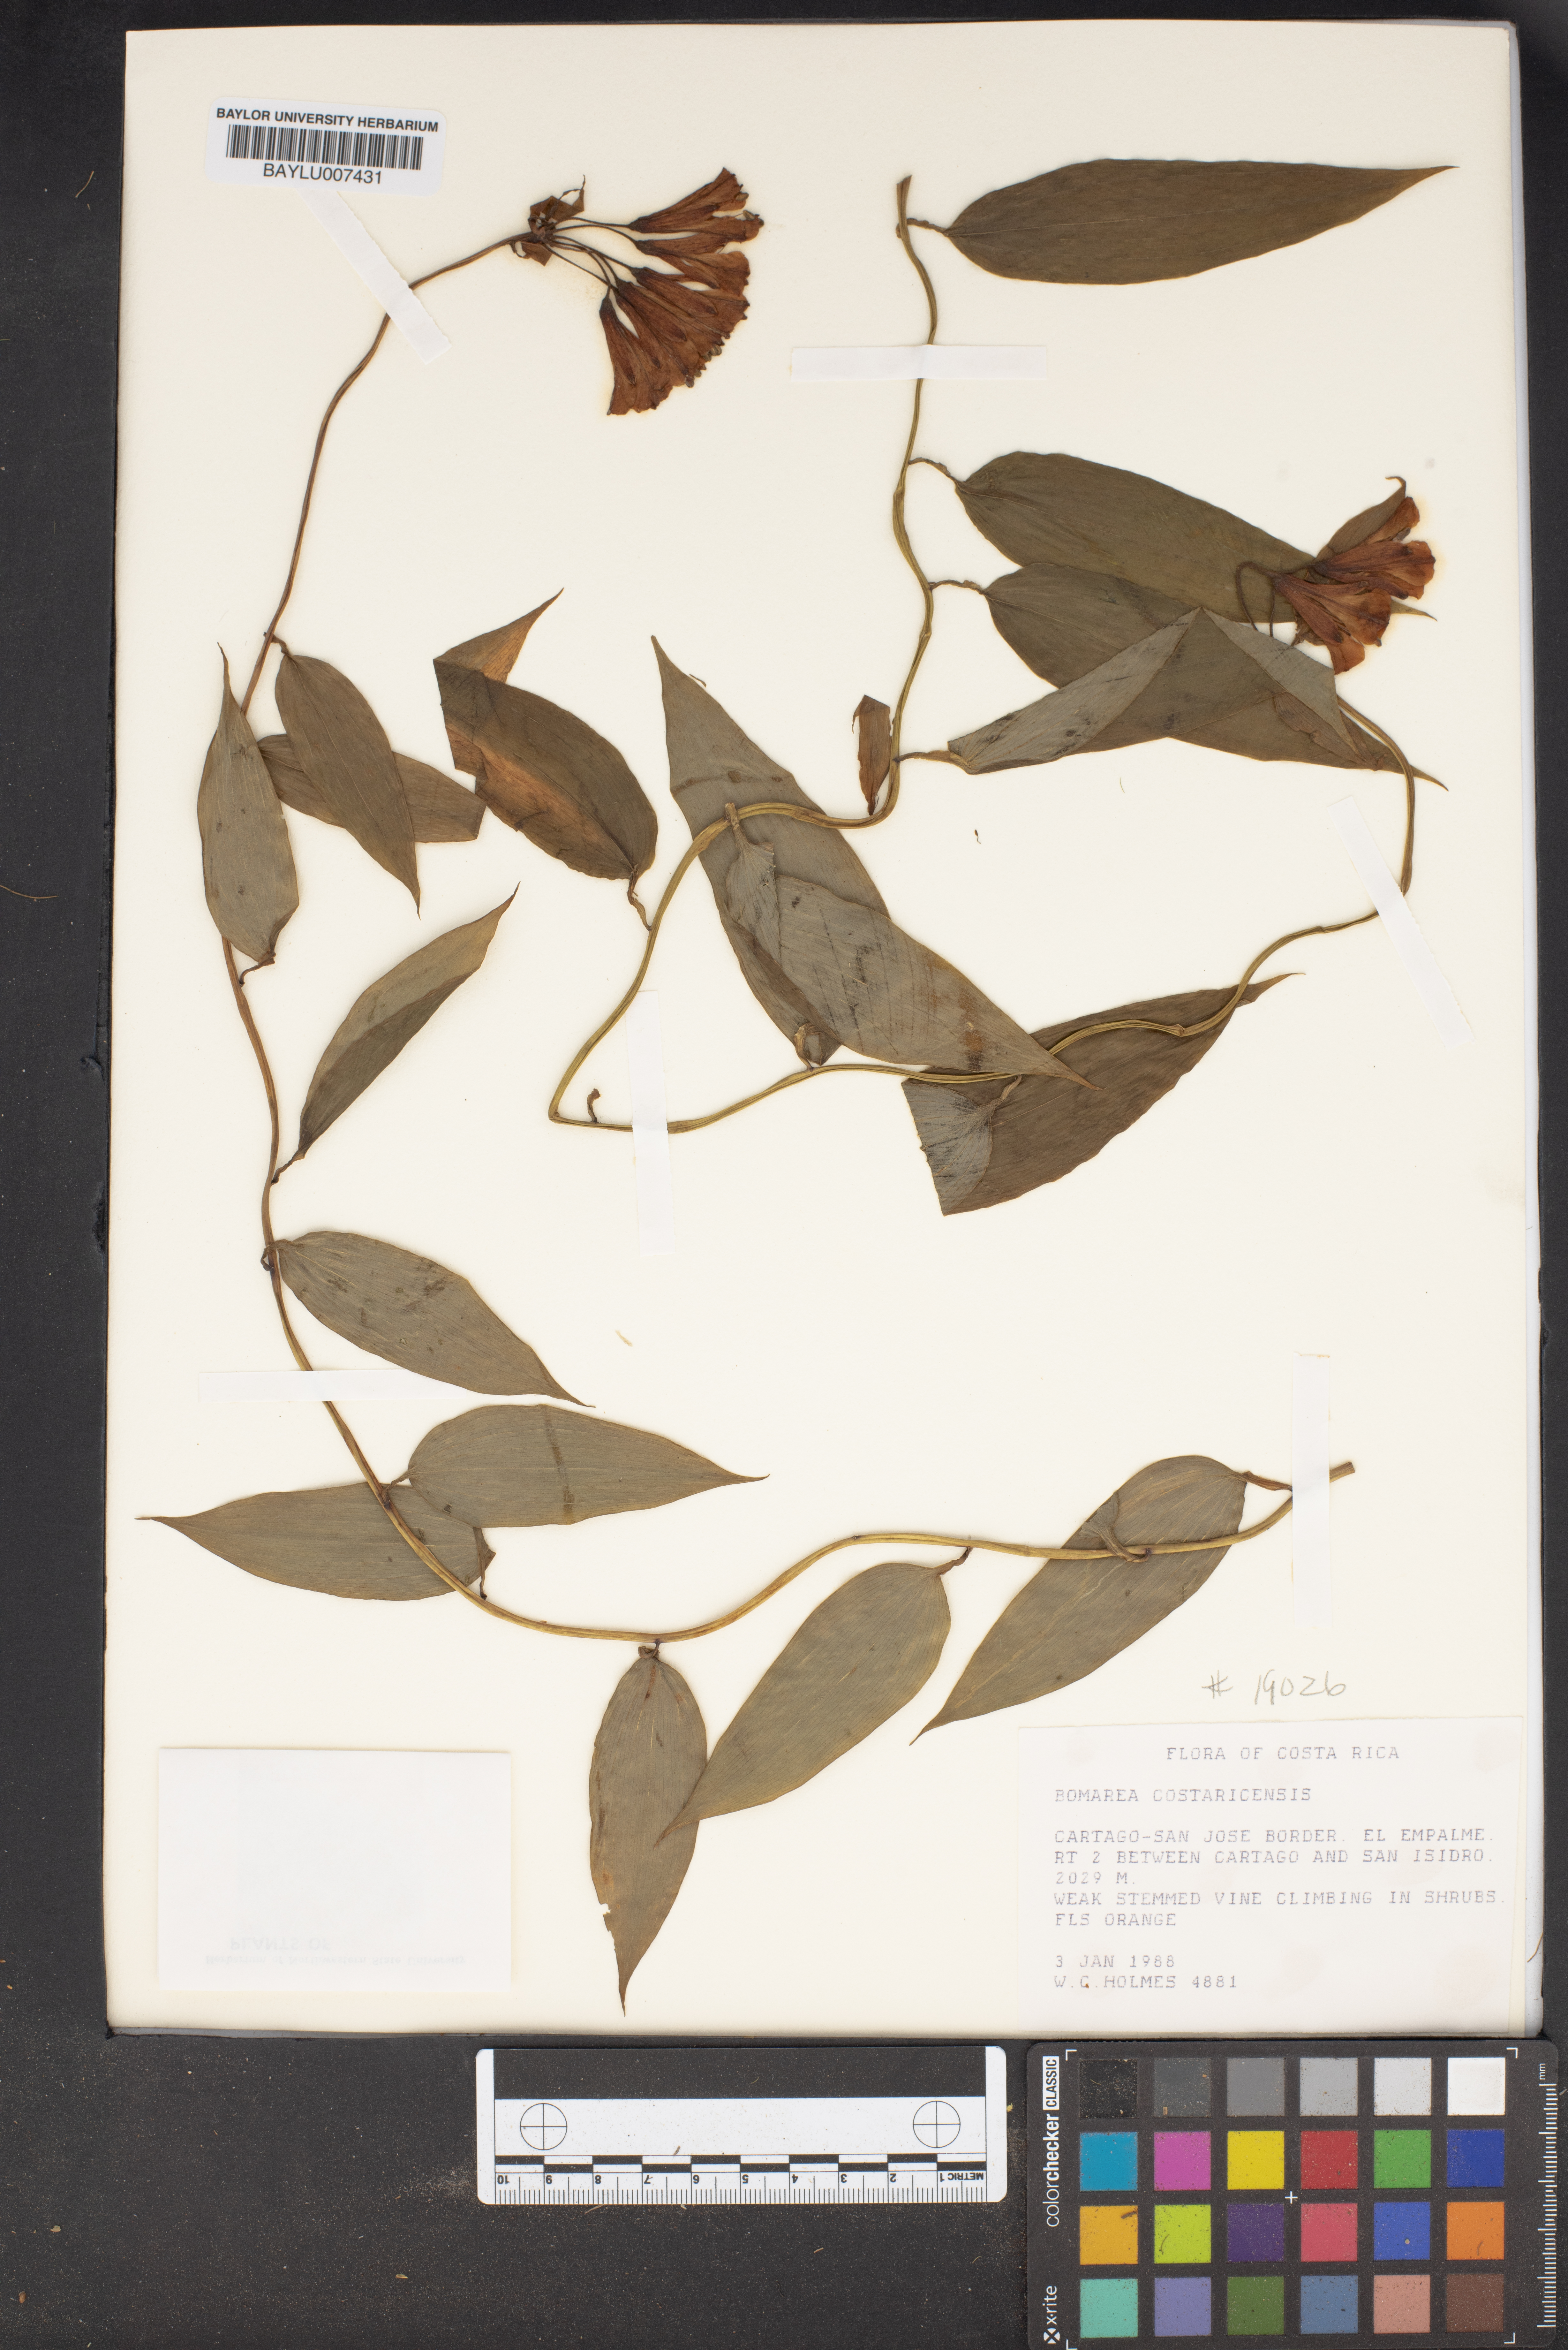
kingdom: Plantae
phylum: Tracheophyta
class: Liliopsida
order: Liliales
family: Alstroemeriaceae
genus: Bomarea
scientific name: Bomarea costaricensis
